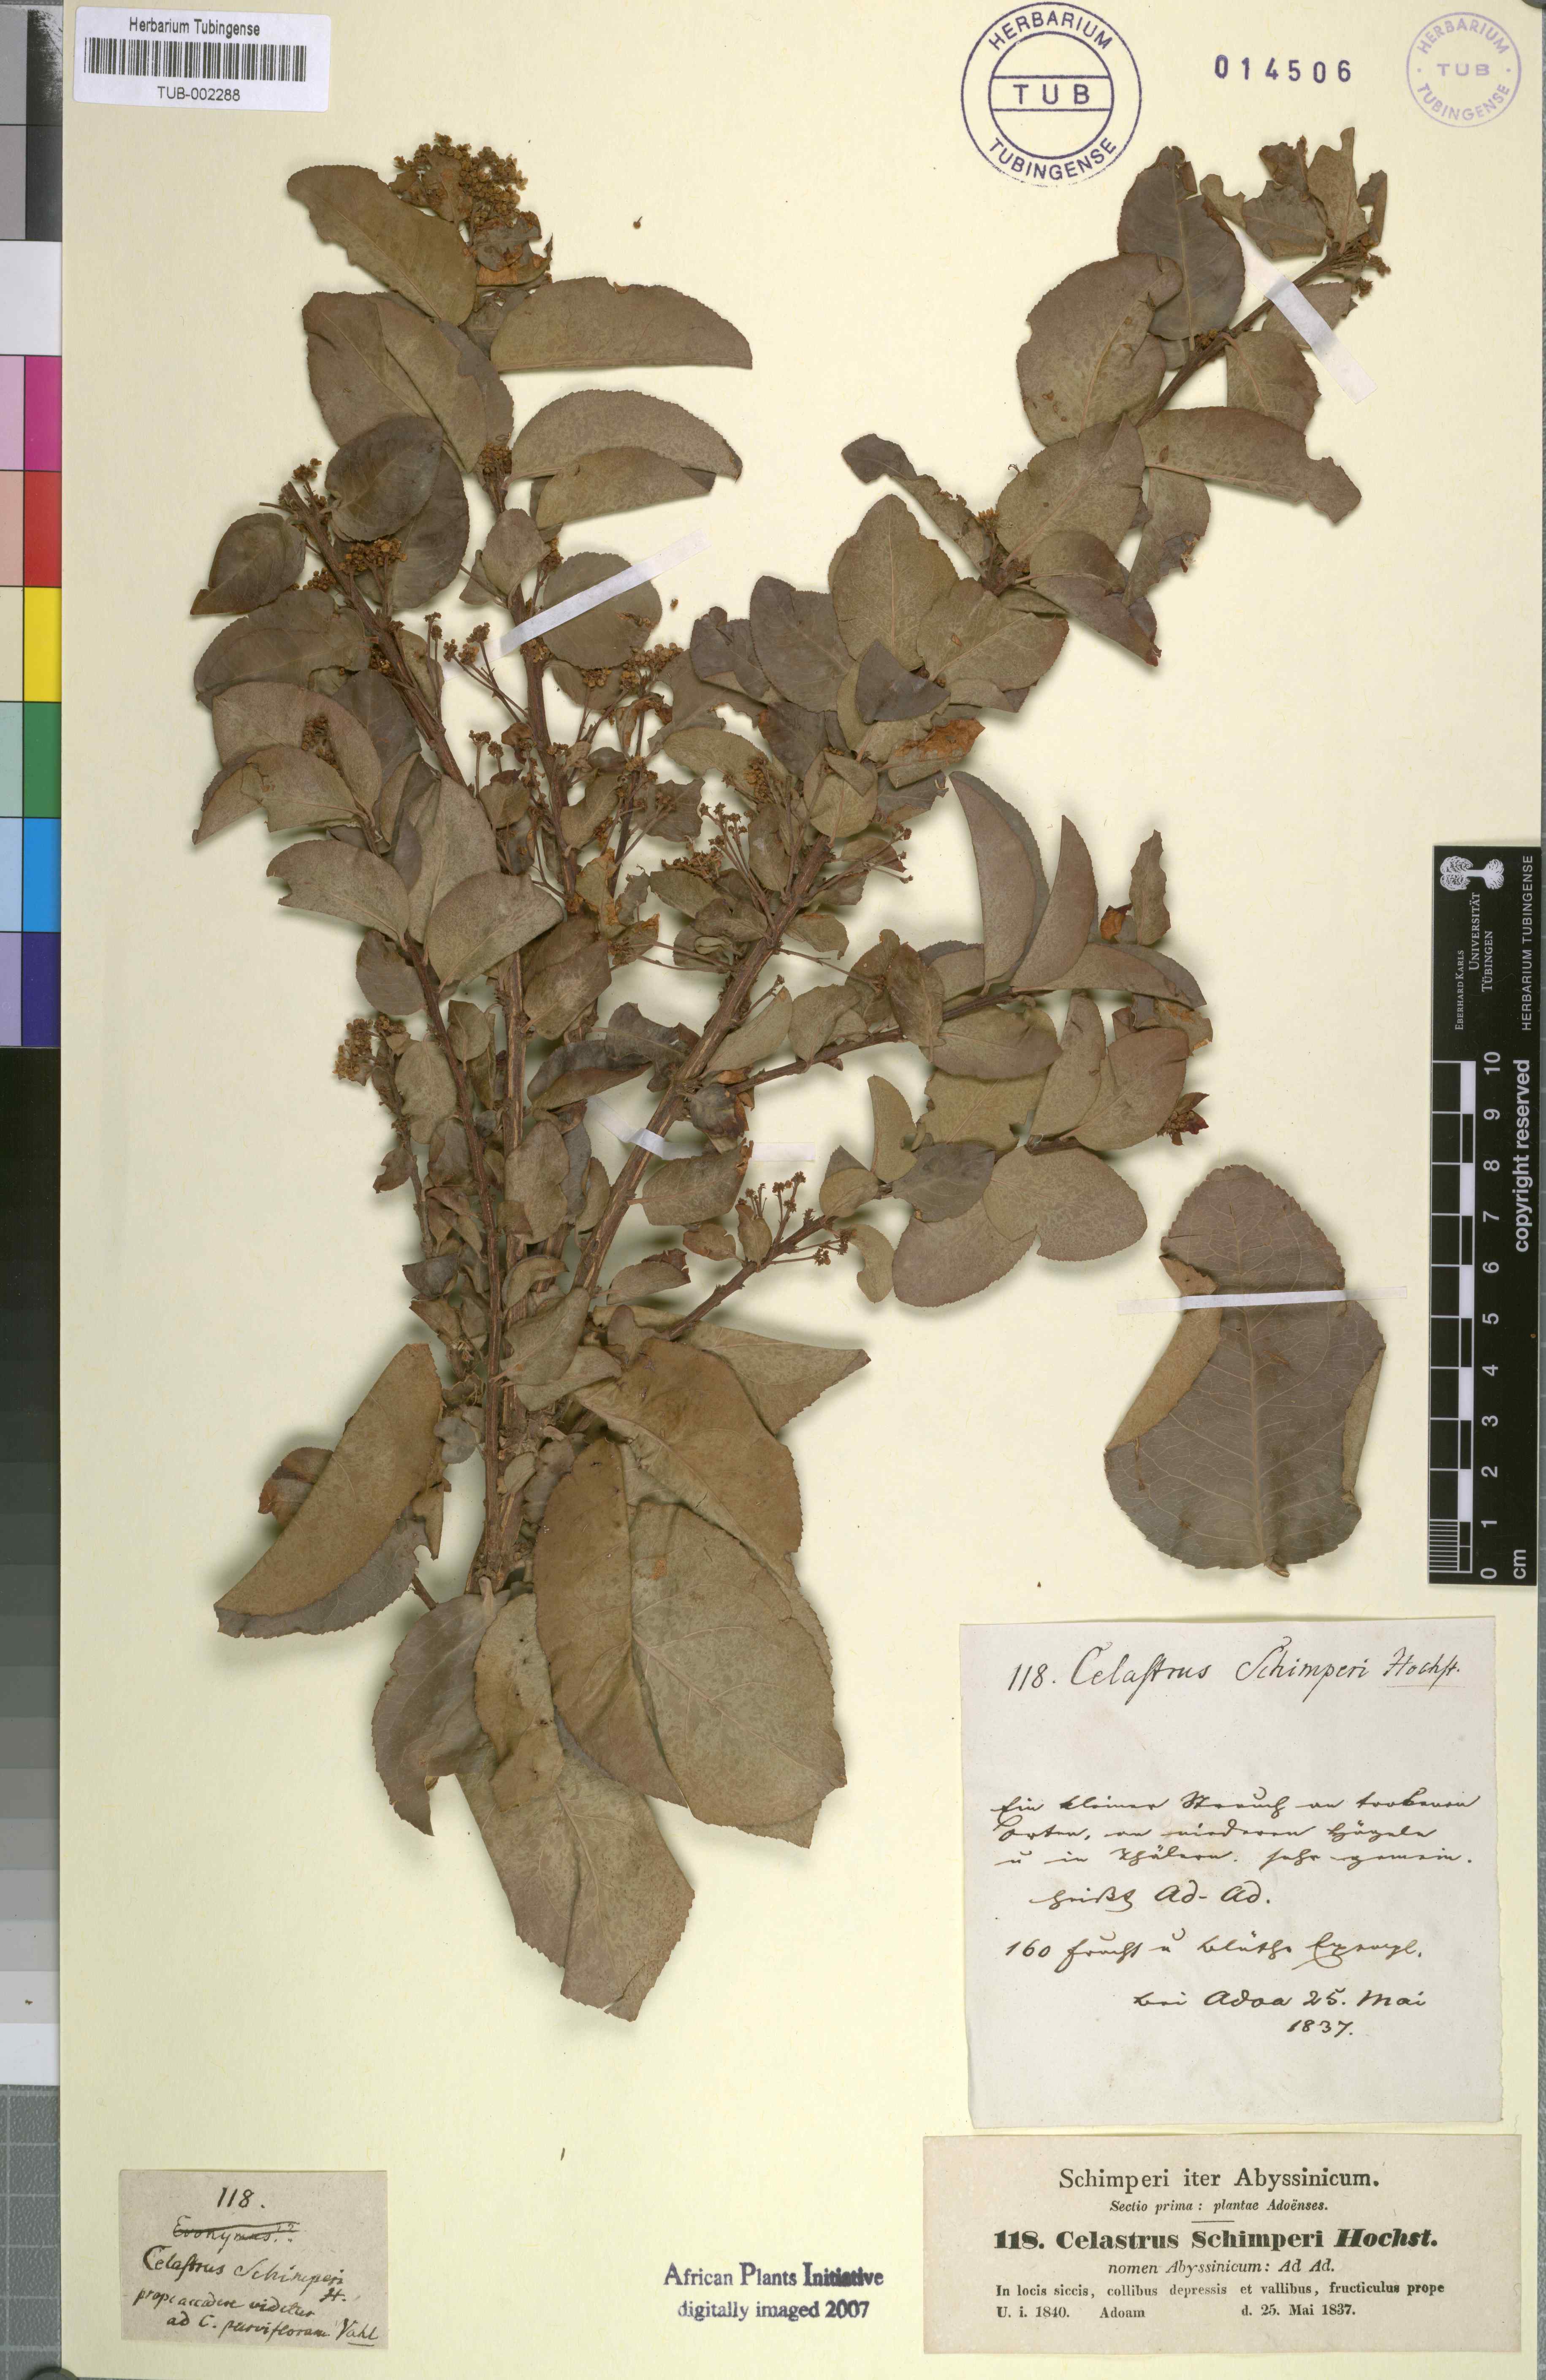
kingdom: Plantae
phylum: Tracheophyta
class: Magnoliopsida
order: Celastrales
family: Celastraceae
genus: Gymnosporia
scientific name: Gymnosporia serrata
